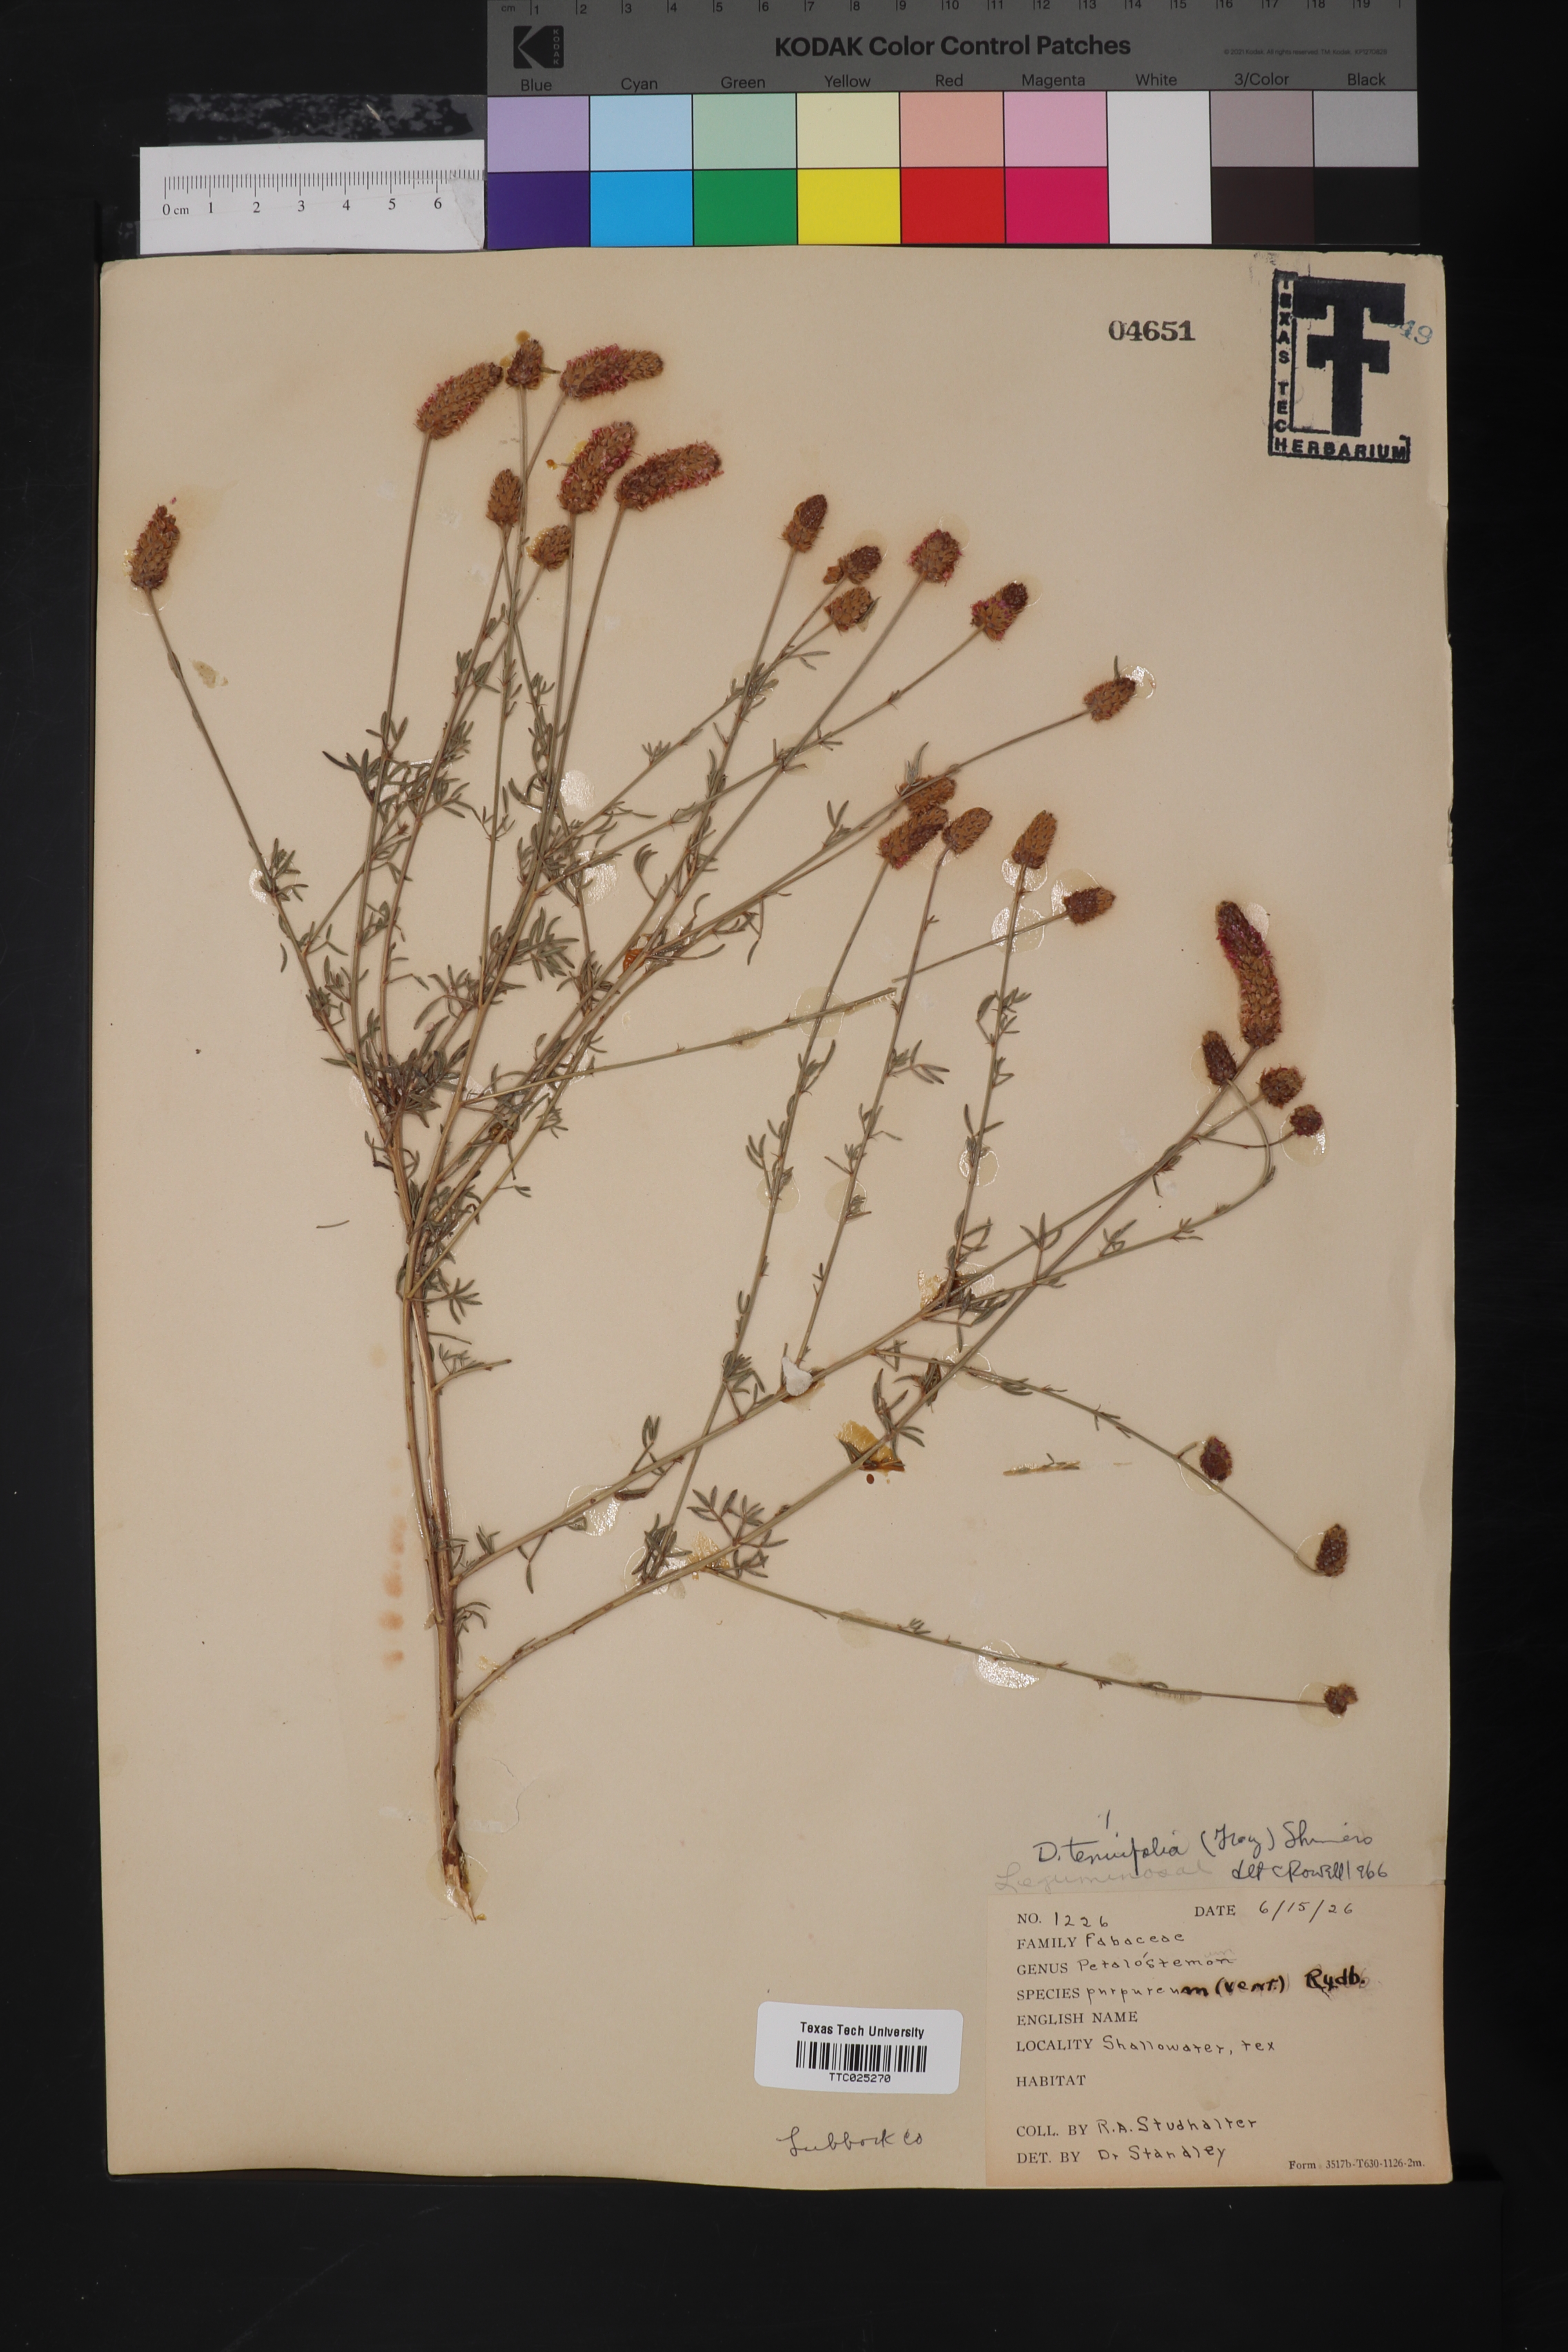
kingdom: Plantae
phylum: Tracheophyta
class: Magnoliopsida
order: Brassicales
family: Brassicaceae
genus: Diplotaxis
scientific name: Diplotaxis tenuifolia
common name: Perennial wall-rocket
